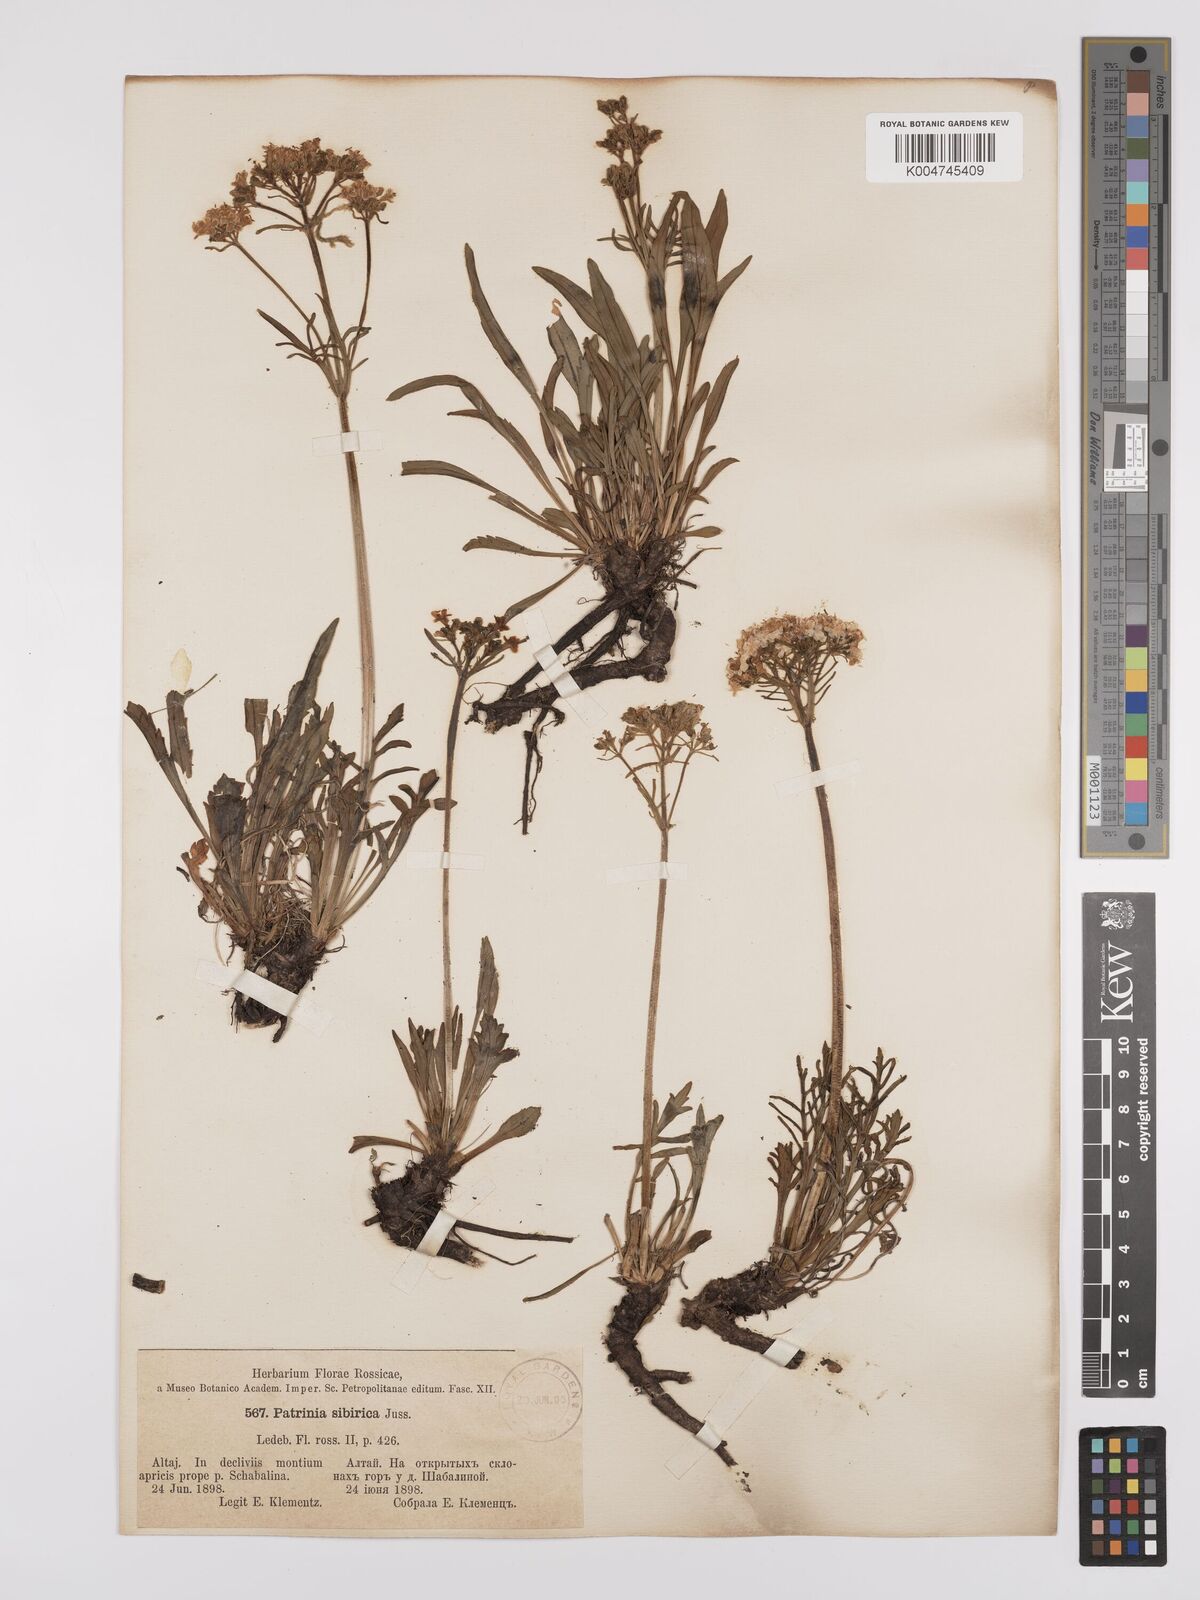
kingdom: Plantae
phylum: Tracheophyta
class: Magnoliopsida
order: Dipsacales
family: Caprifoliaceae
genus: Patrinia
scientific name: Patrinia sibirica
